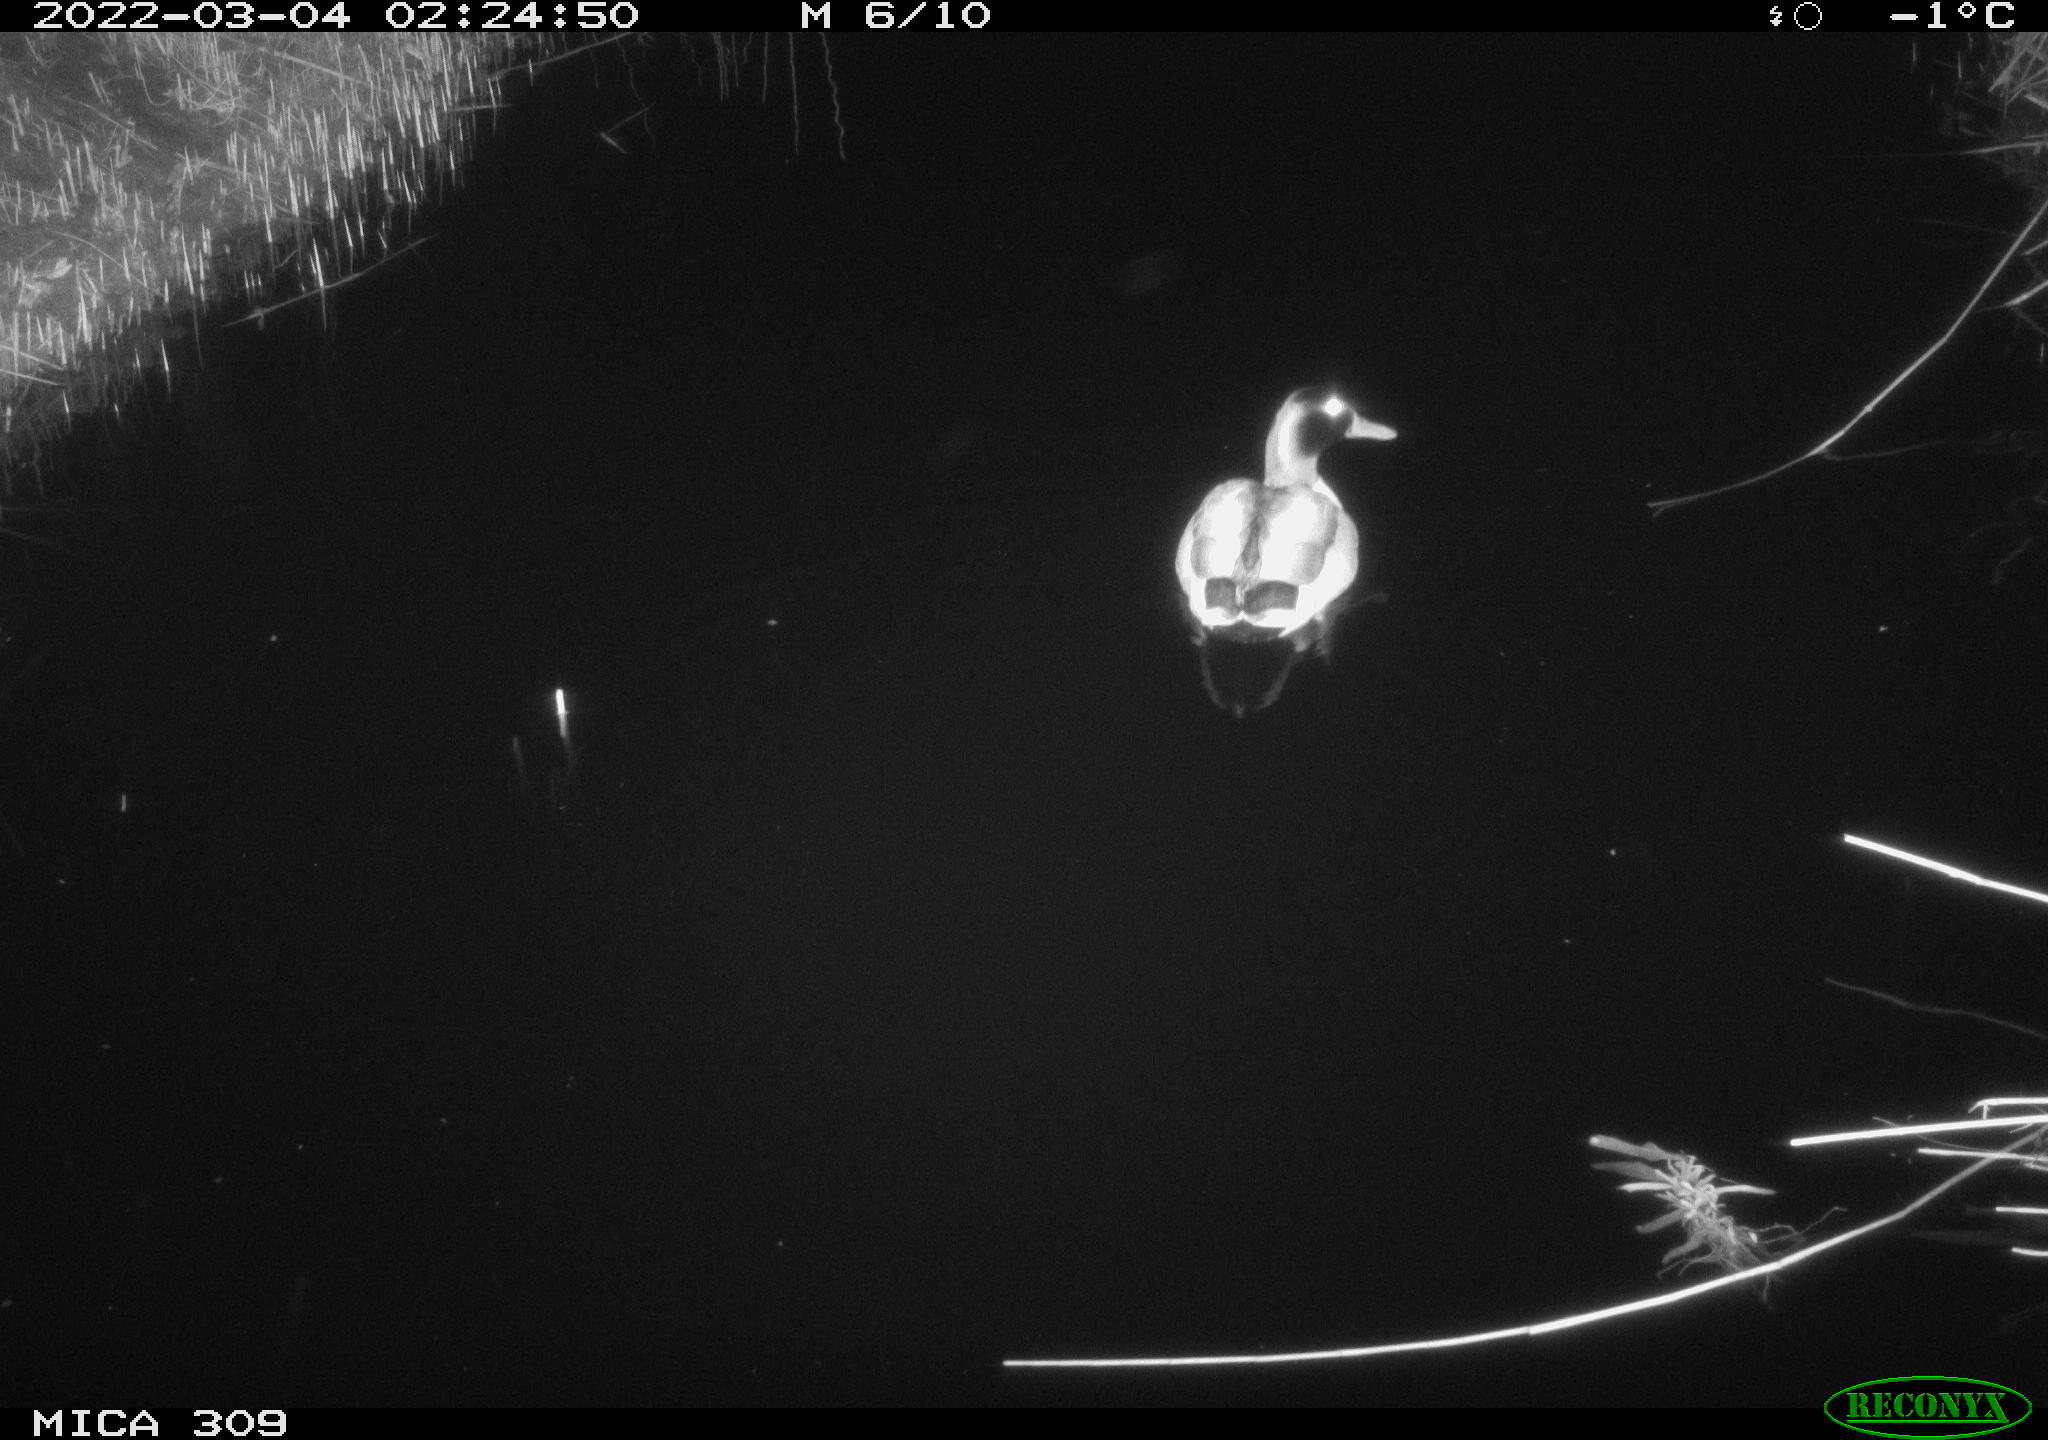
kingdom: Animalia
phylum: Chordata
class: Aves
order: Anseriformes
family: Anatidae
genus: Anas
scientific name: Anas platyrhynchos
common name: Mallard
